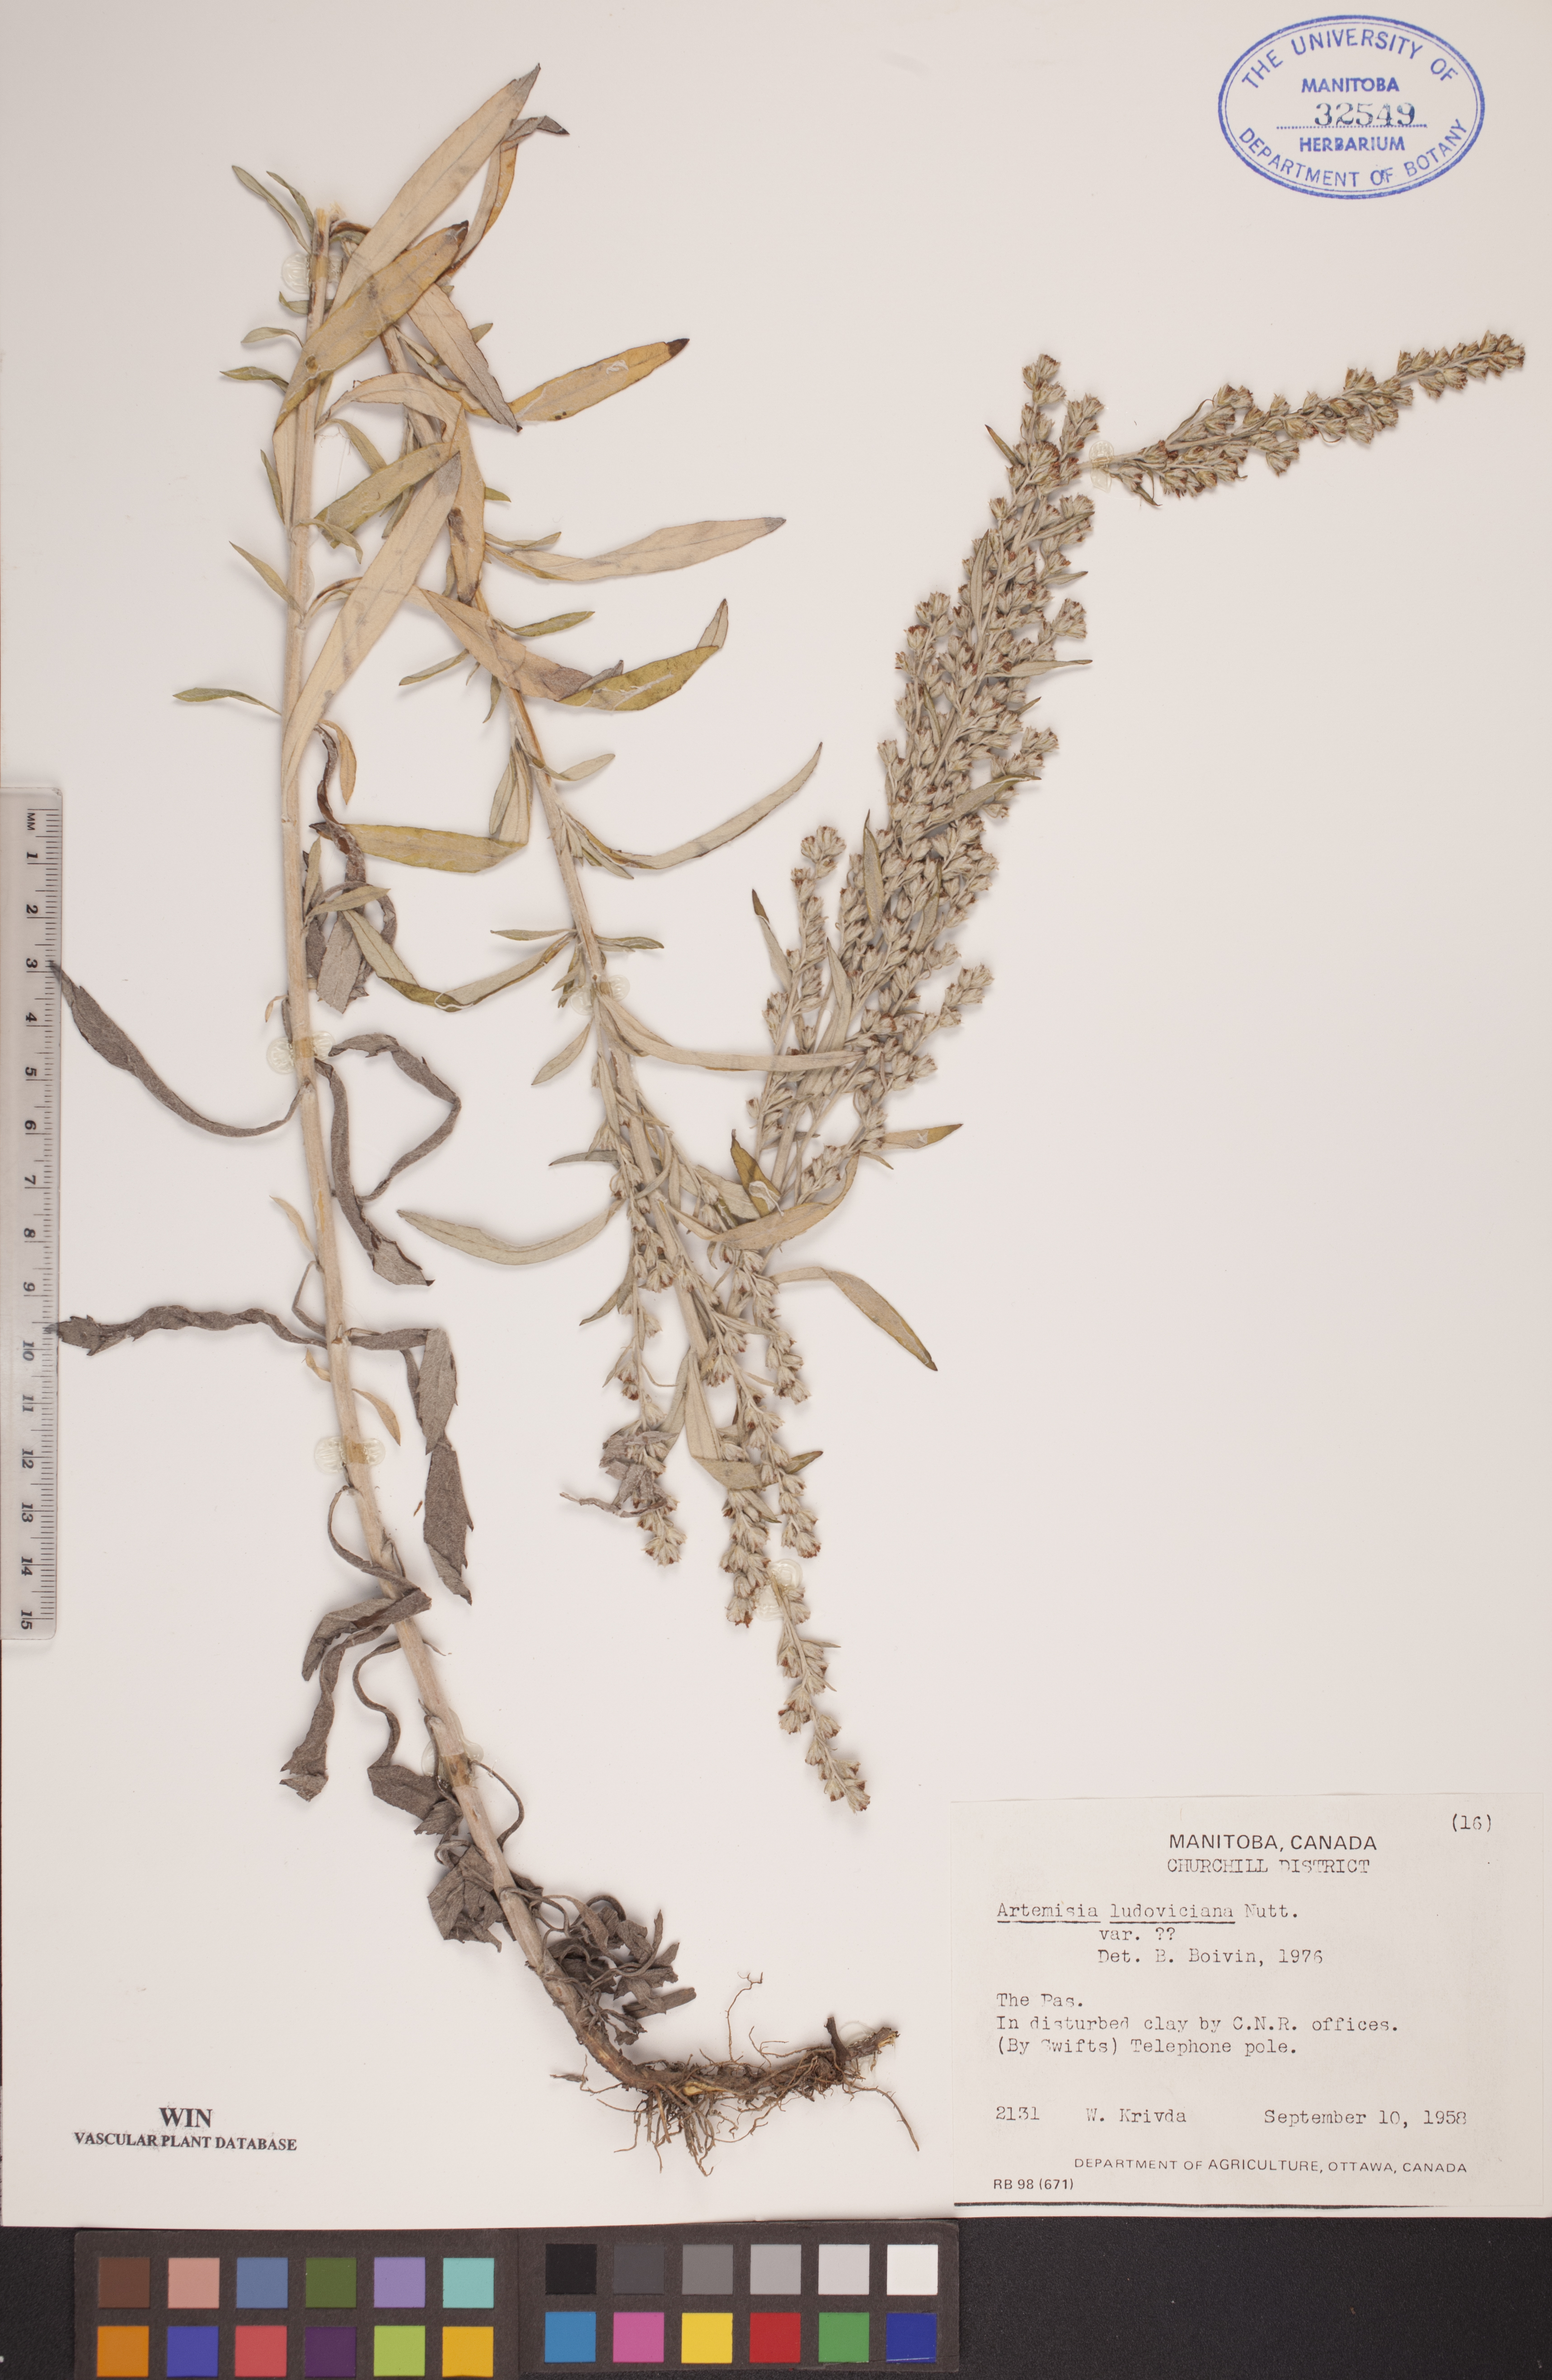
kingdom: Plantae
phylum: Tracheophyta
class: Magnoliopsida
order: Asterales
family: Asteraceae
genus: Artemisia
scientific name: Artemisia ludoviciana
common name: Western mugwort
